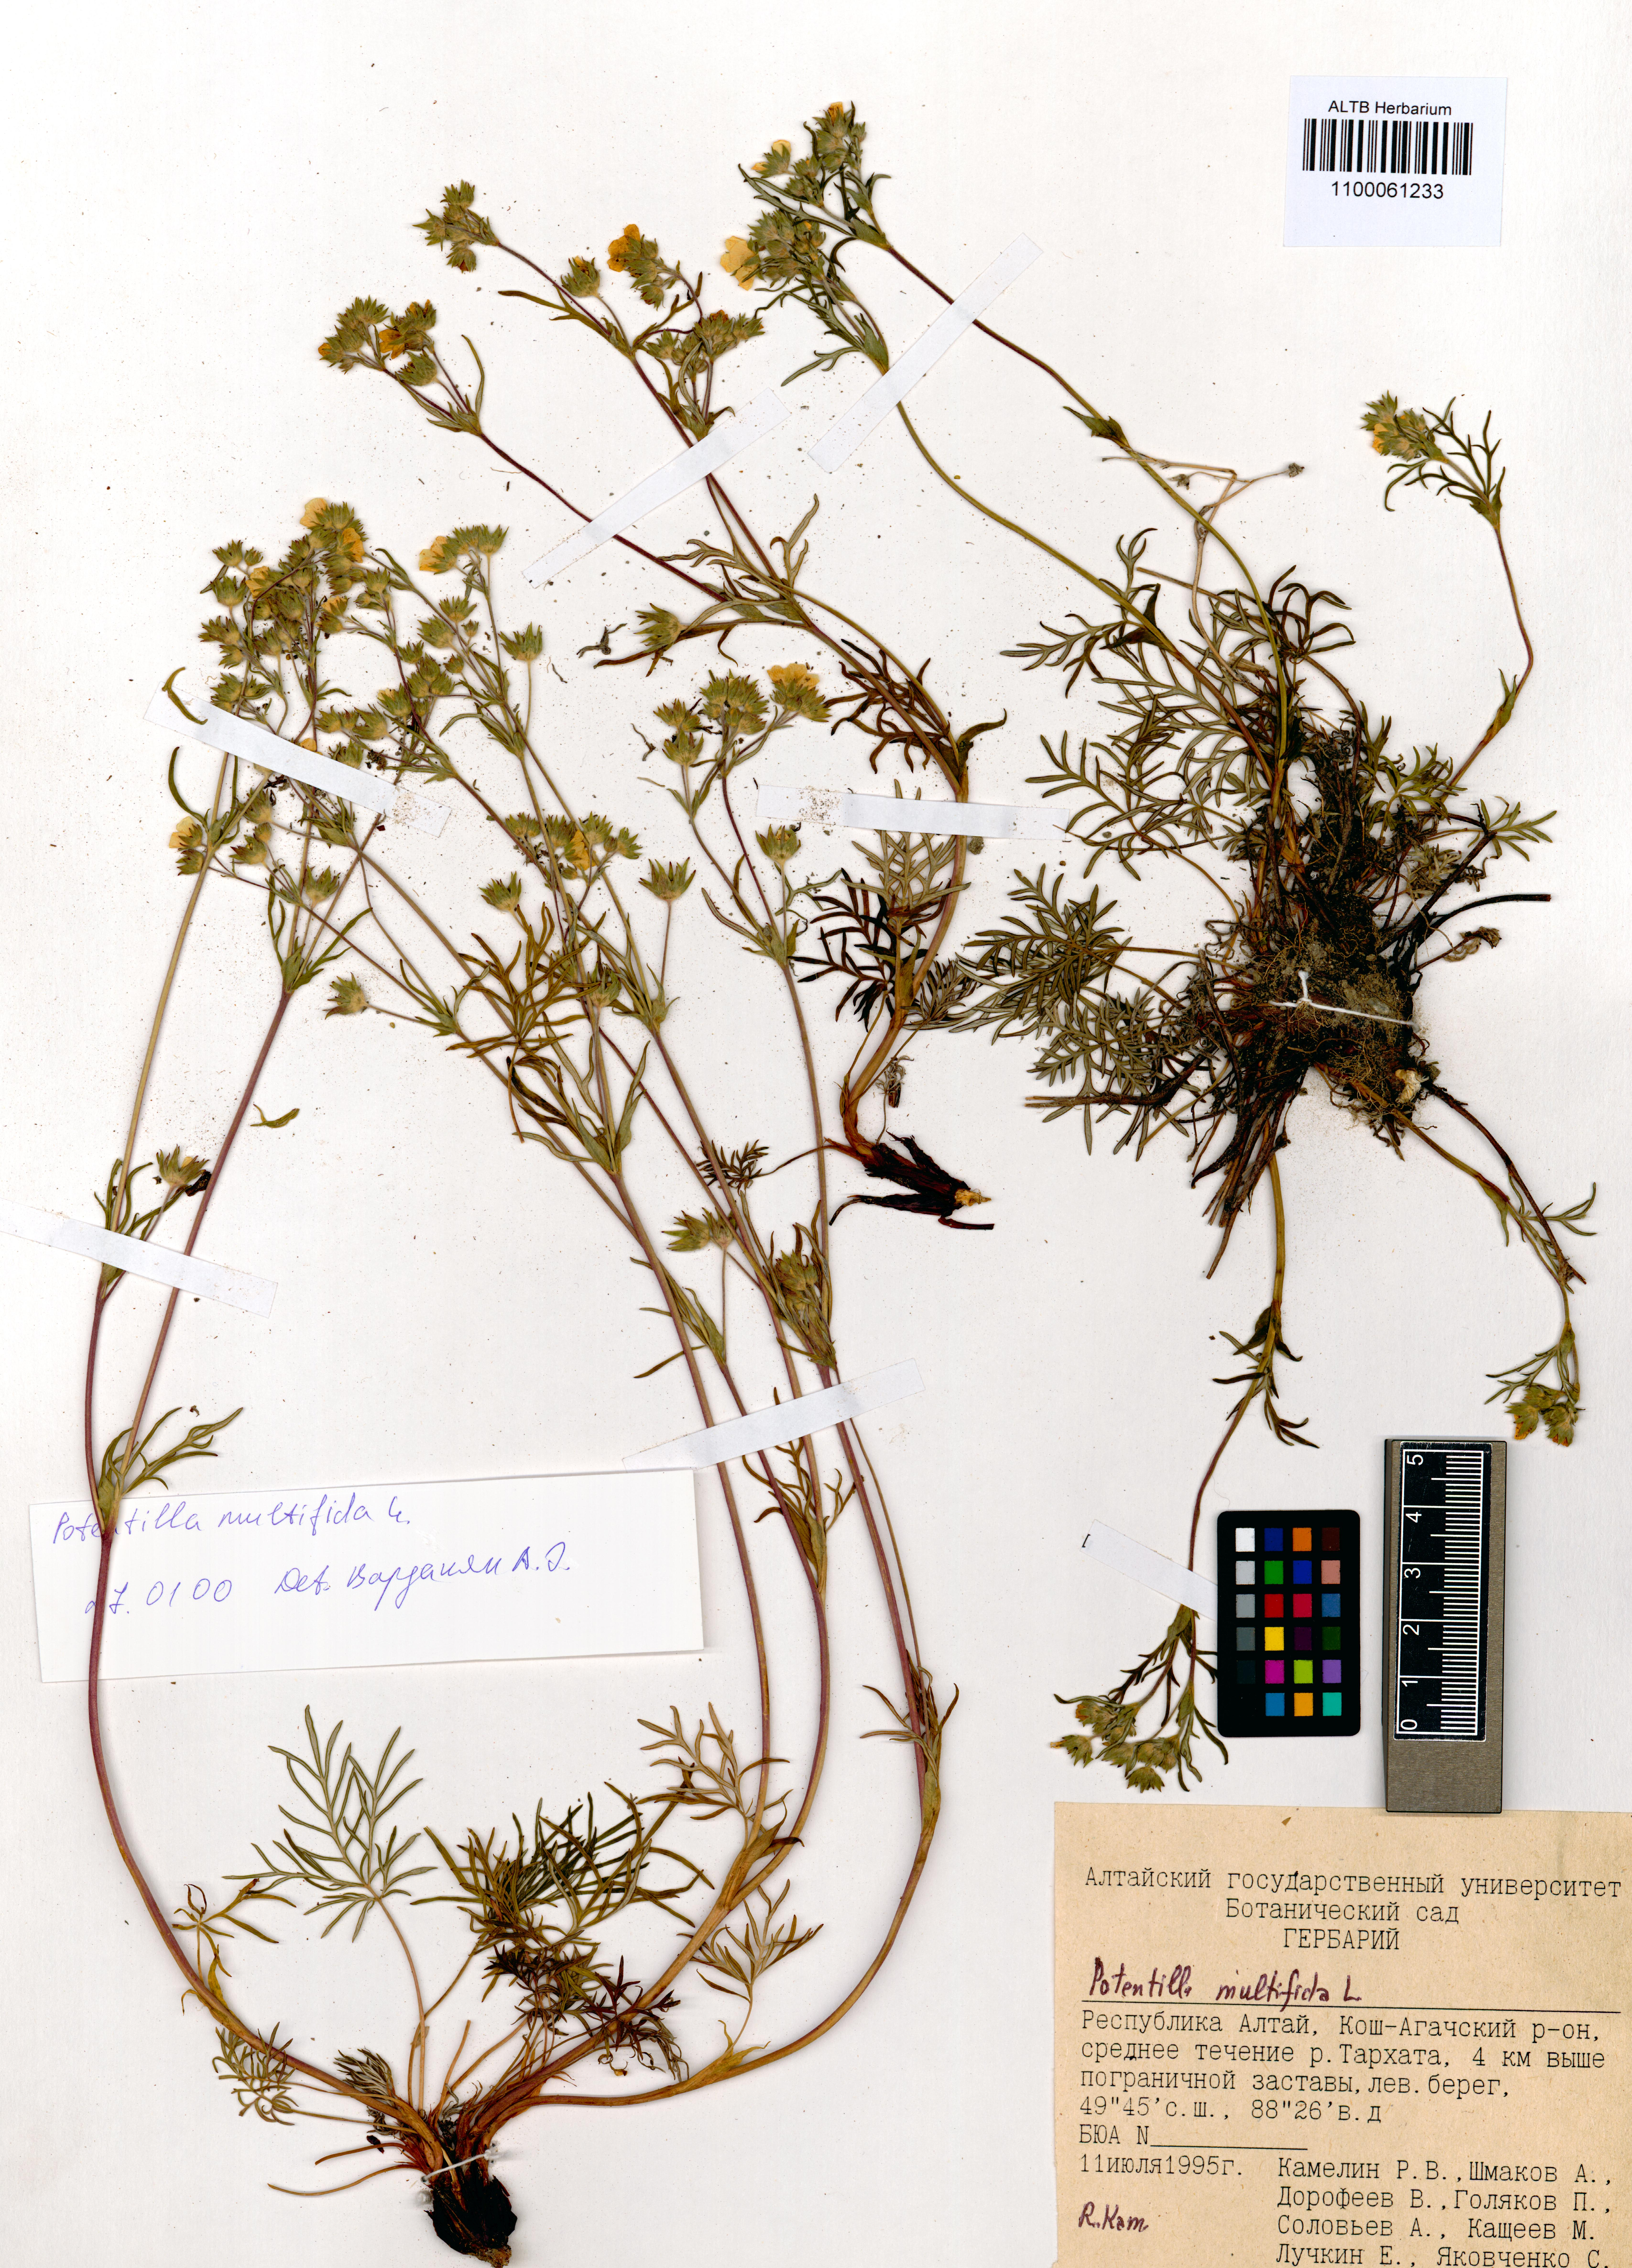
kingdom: Plantae
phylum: Tracheophyta
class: Magnoliopsida
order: Rosales
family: Rosaceae
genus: Potentilla
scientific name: Potentilla multifida
